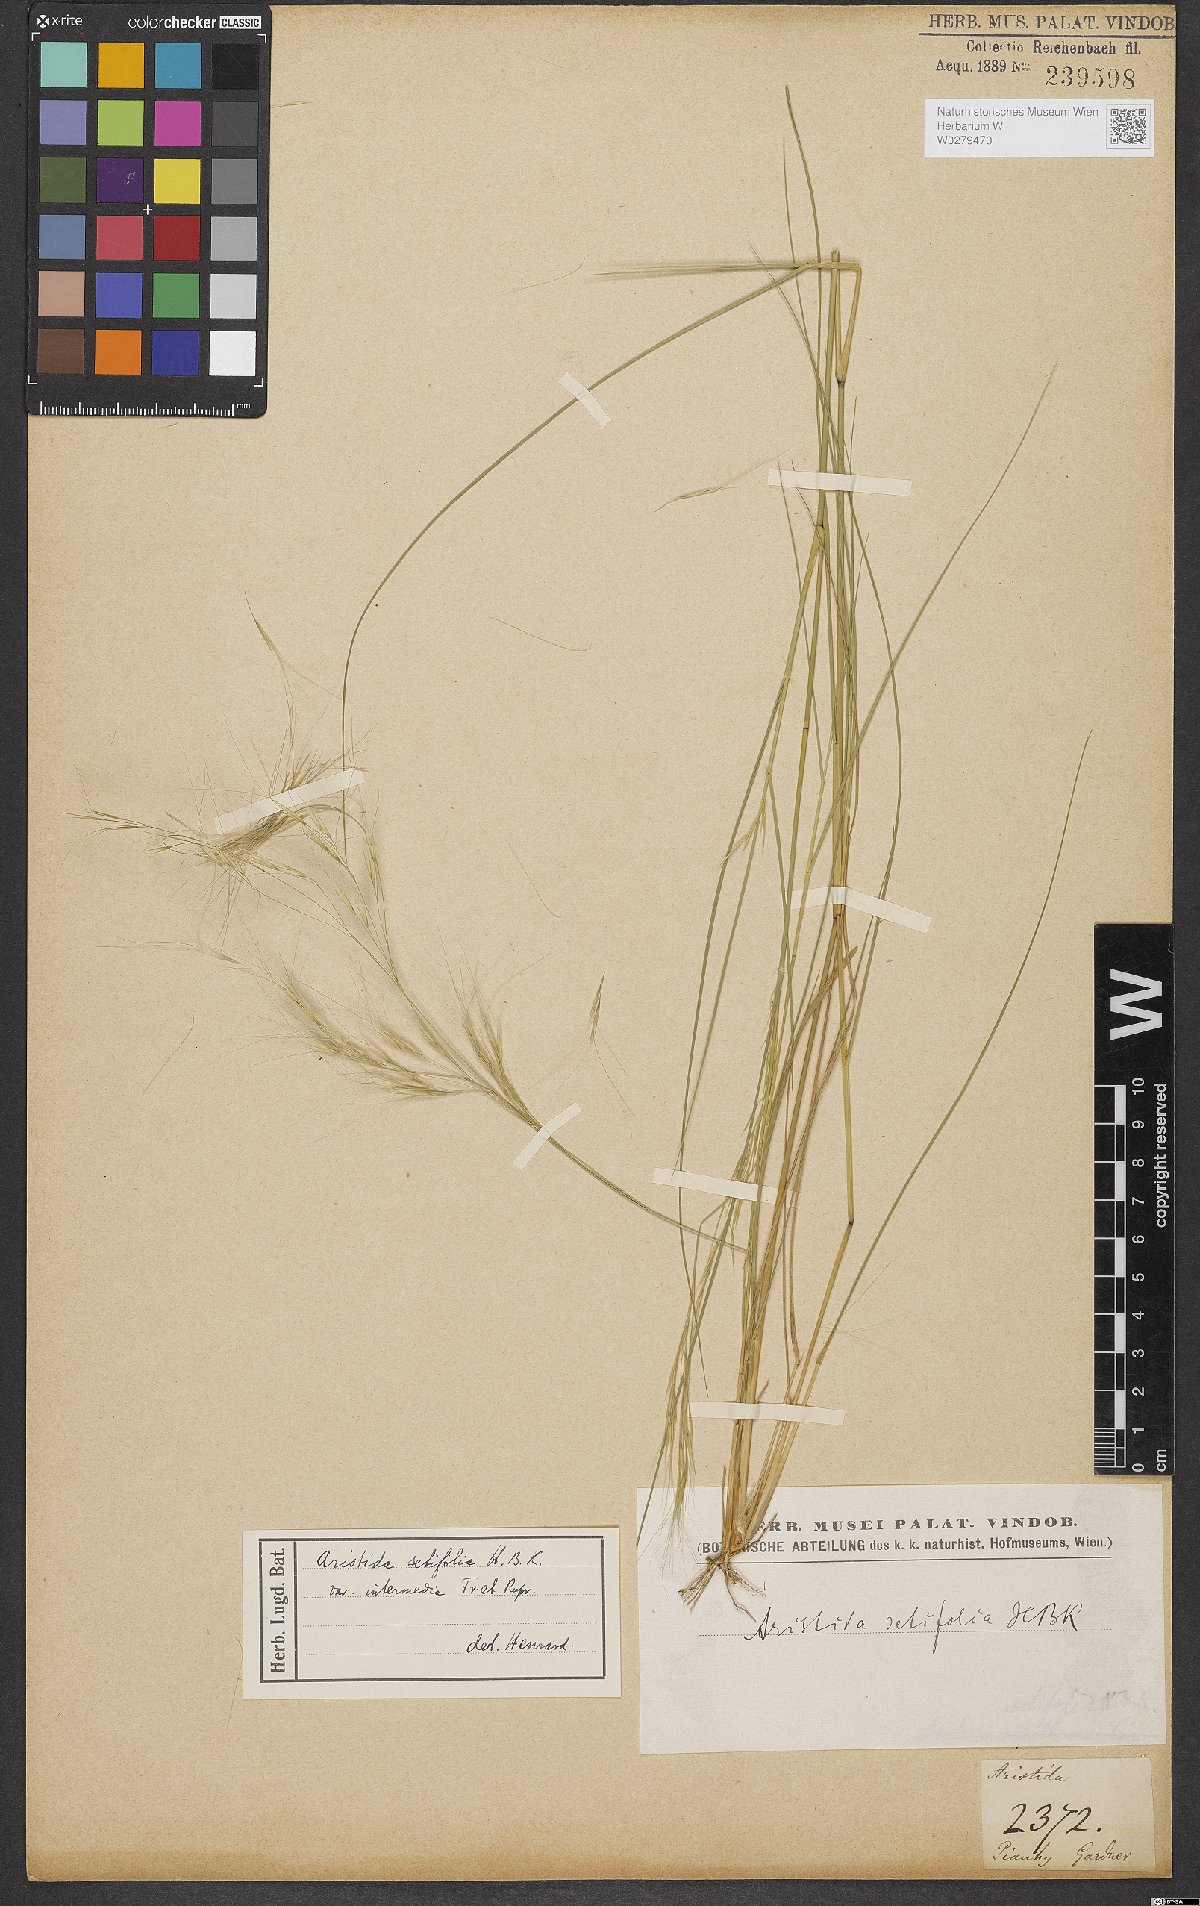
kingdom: Plantae
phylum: Tracheophyta
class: Liliopsida
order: Poales
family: Poaceae
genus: Aristida
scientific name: Aristida setifolia
